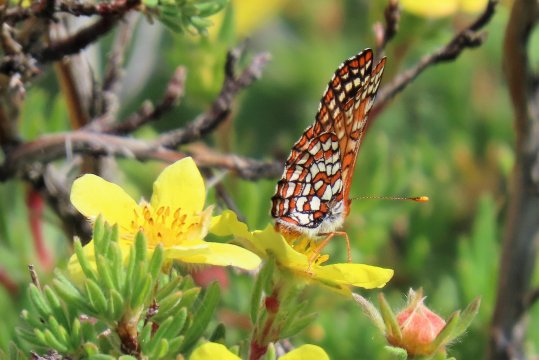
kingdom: Animalia
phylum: Arthropoda
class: Insecta
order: Lepidoptera
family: Nymphalidae
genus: Occidryas
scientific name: Occidryas anicia
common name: Anicia Checkerspot
